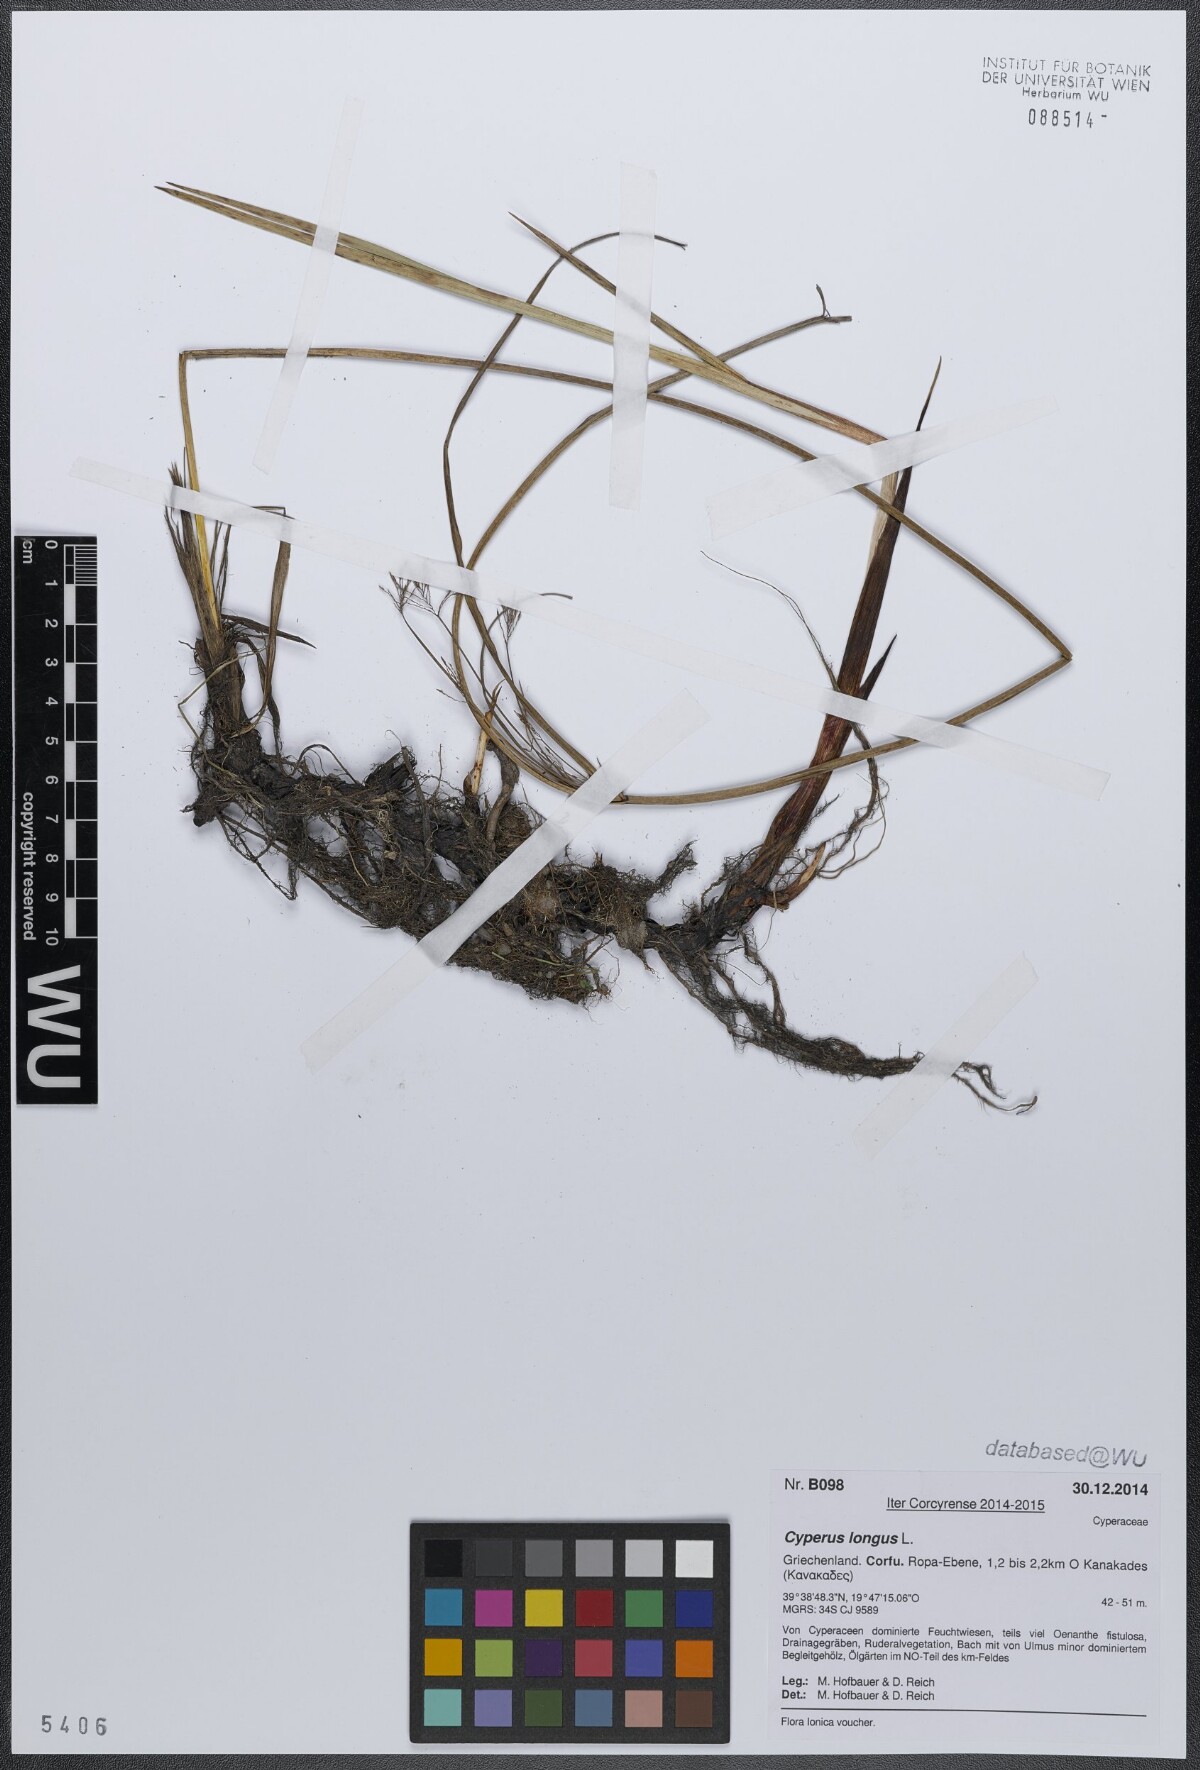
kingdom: Plantae
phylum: Tracheophyta
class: Liliopsida
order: Poales
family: Cyperaceae
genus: Cyperus
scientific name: Cyperus longus
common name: Galingale
